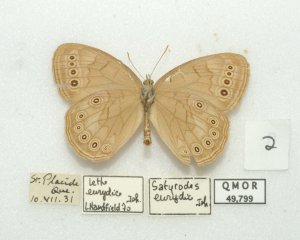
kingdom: Animalia
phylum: Arthropoda
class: Insecta
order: Lepidoptera
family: Nymphalidae
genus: Lethe
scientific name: Lethe eurydice
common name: Eyed Brown
